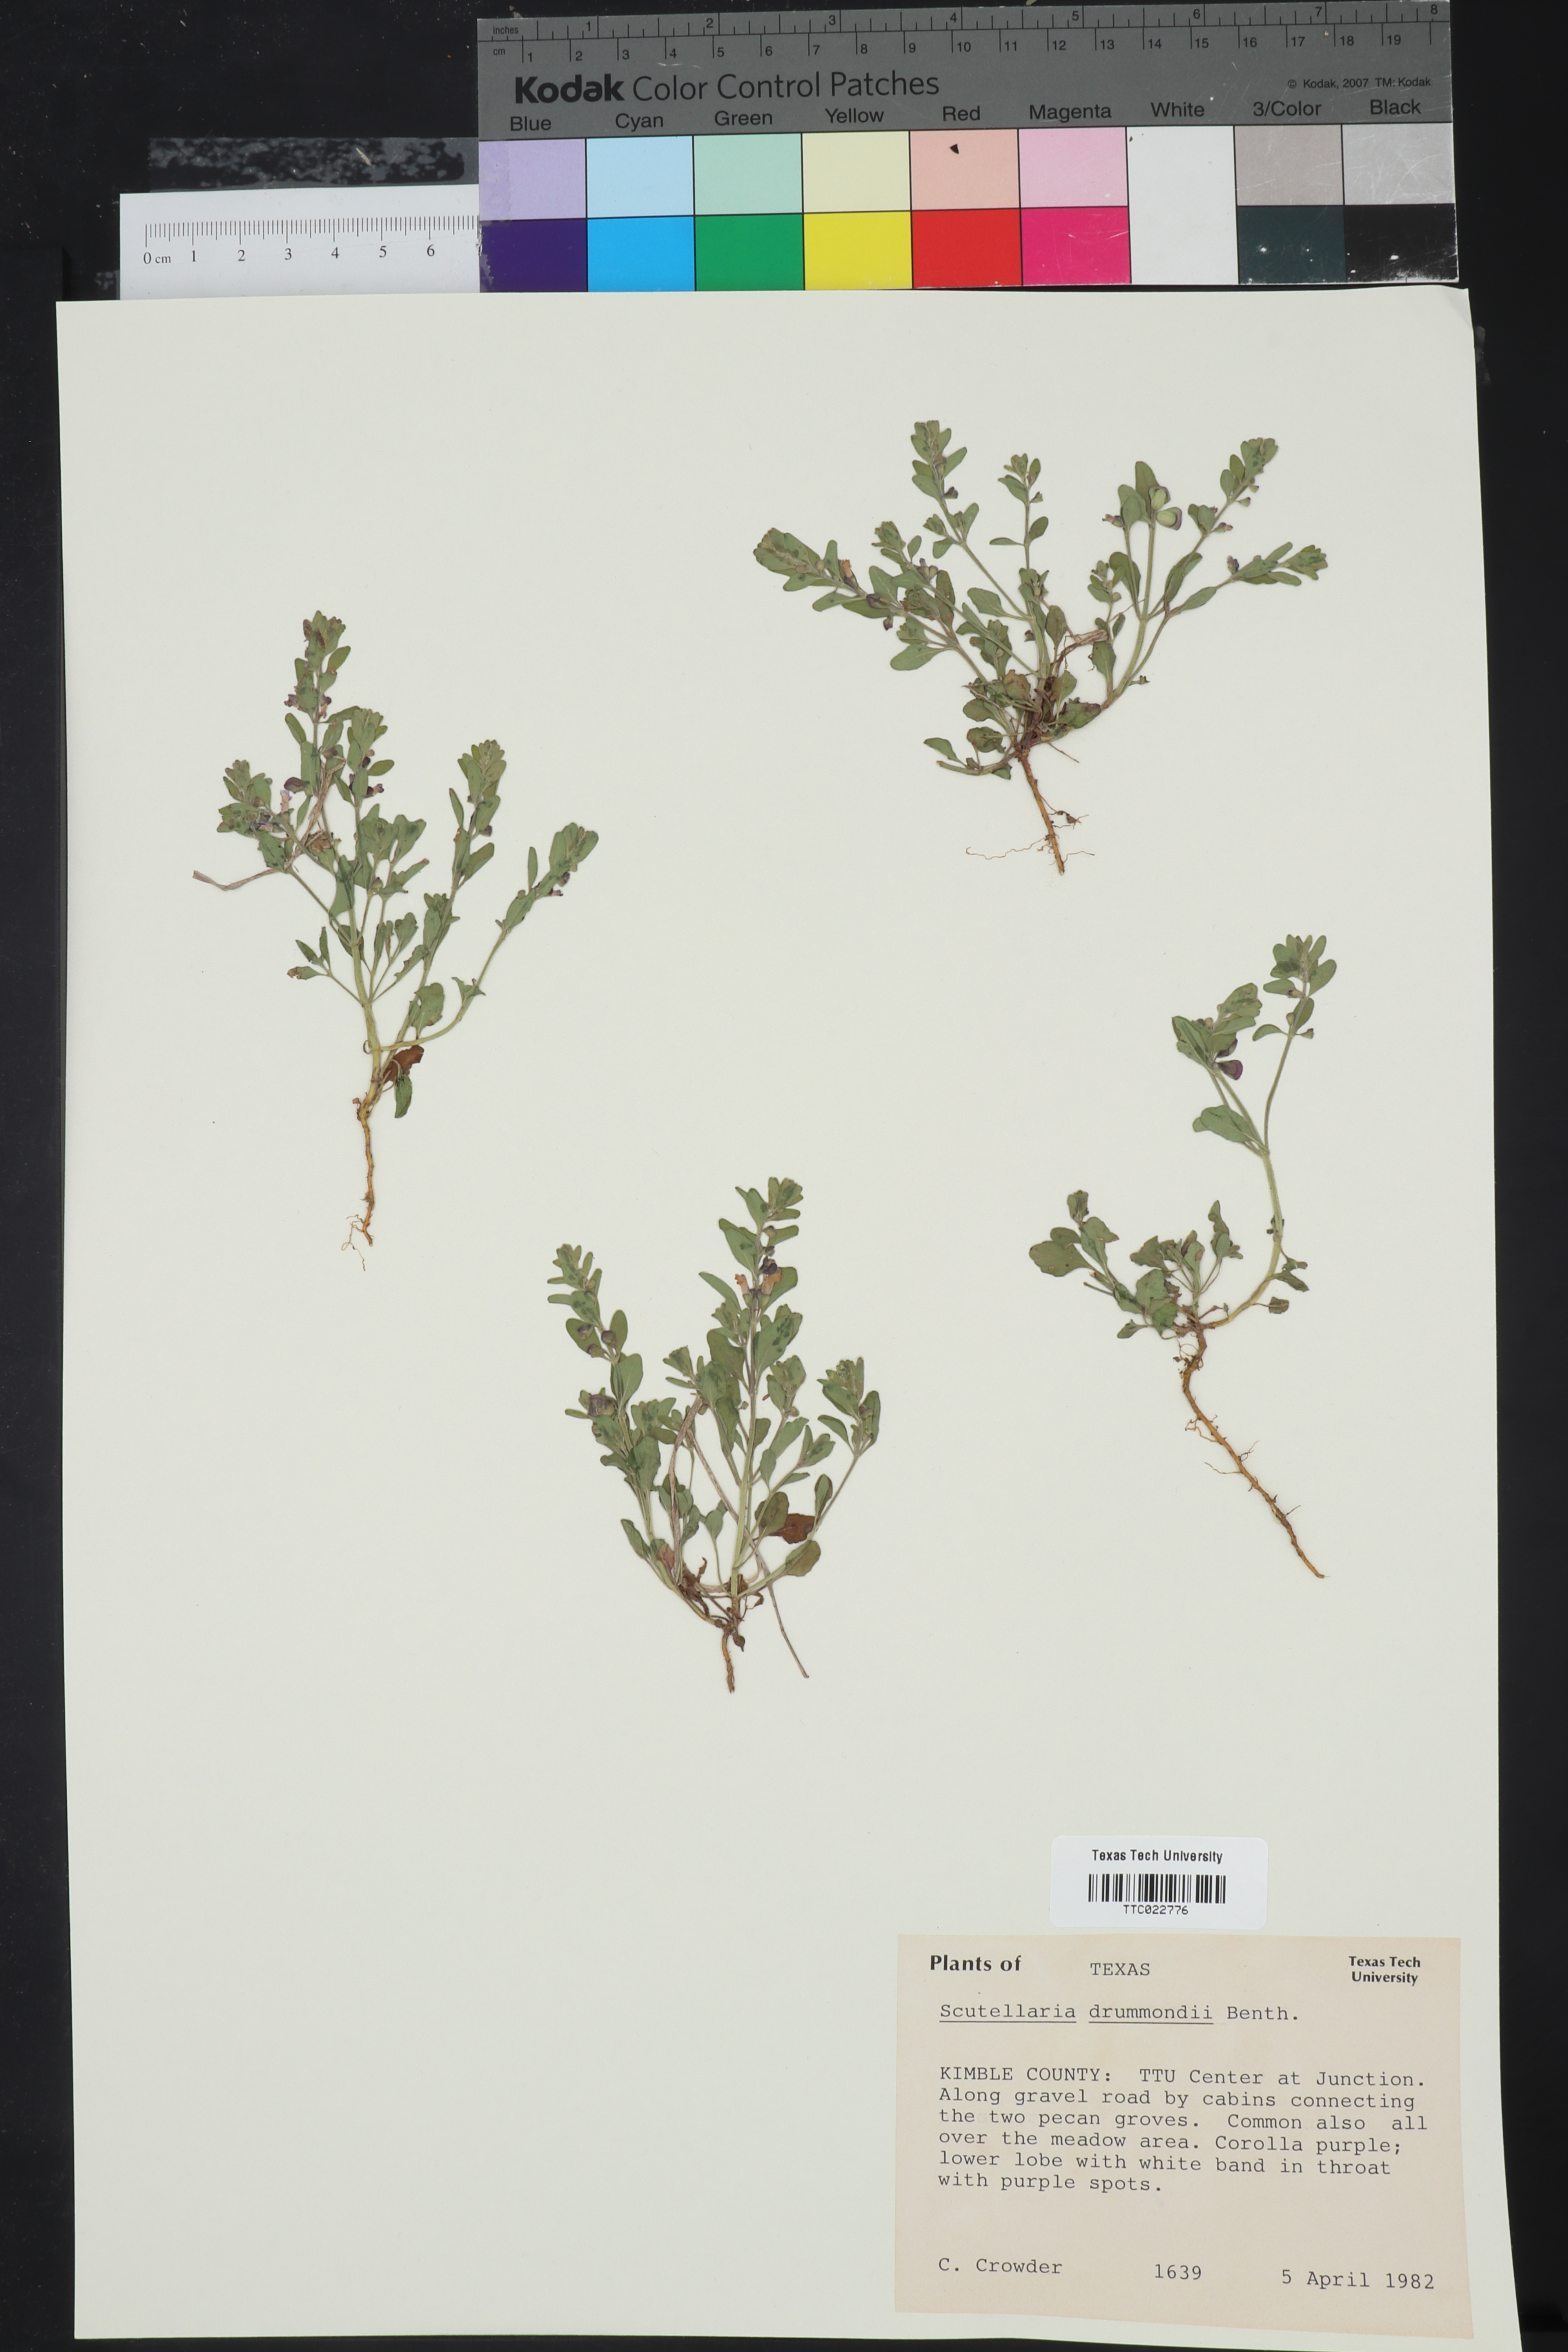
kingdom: Plantae
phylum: Tracheophyta
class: Magnoliopsida
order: Lamiales
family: Lamiaceae
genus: Scutellaria
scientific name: Scutellaria drummondii
